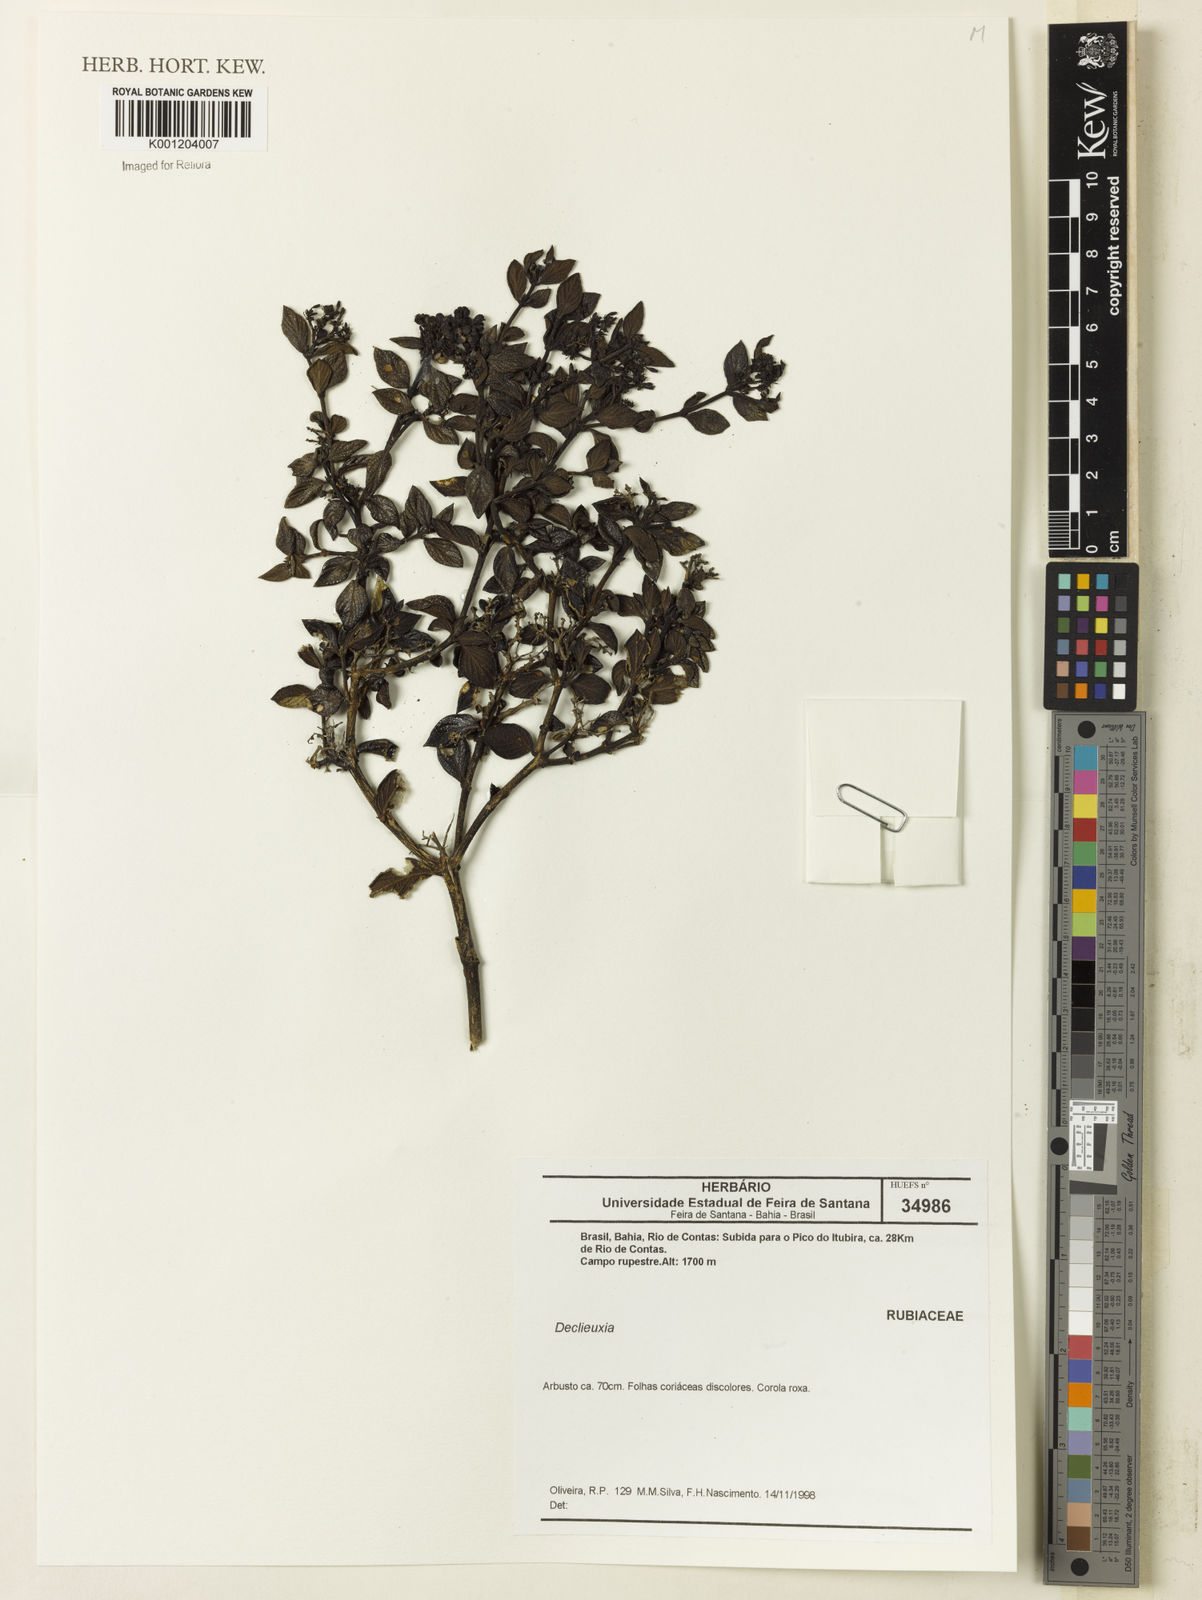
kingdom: Plantae
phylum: Tracheophyta
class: Magnoliopsida
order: Gentianales
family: Rubiaceae
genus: Declieuxia
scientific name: Declieuxia
